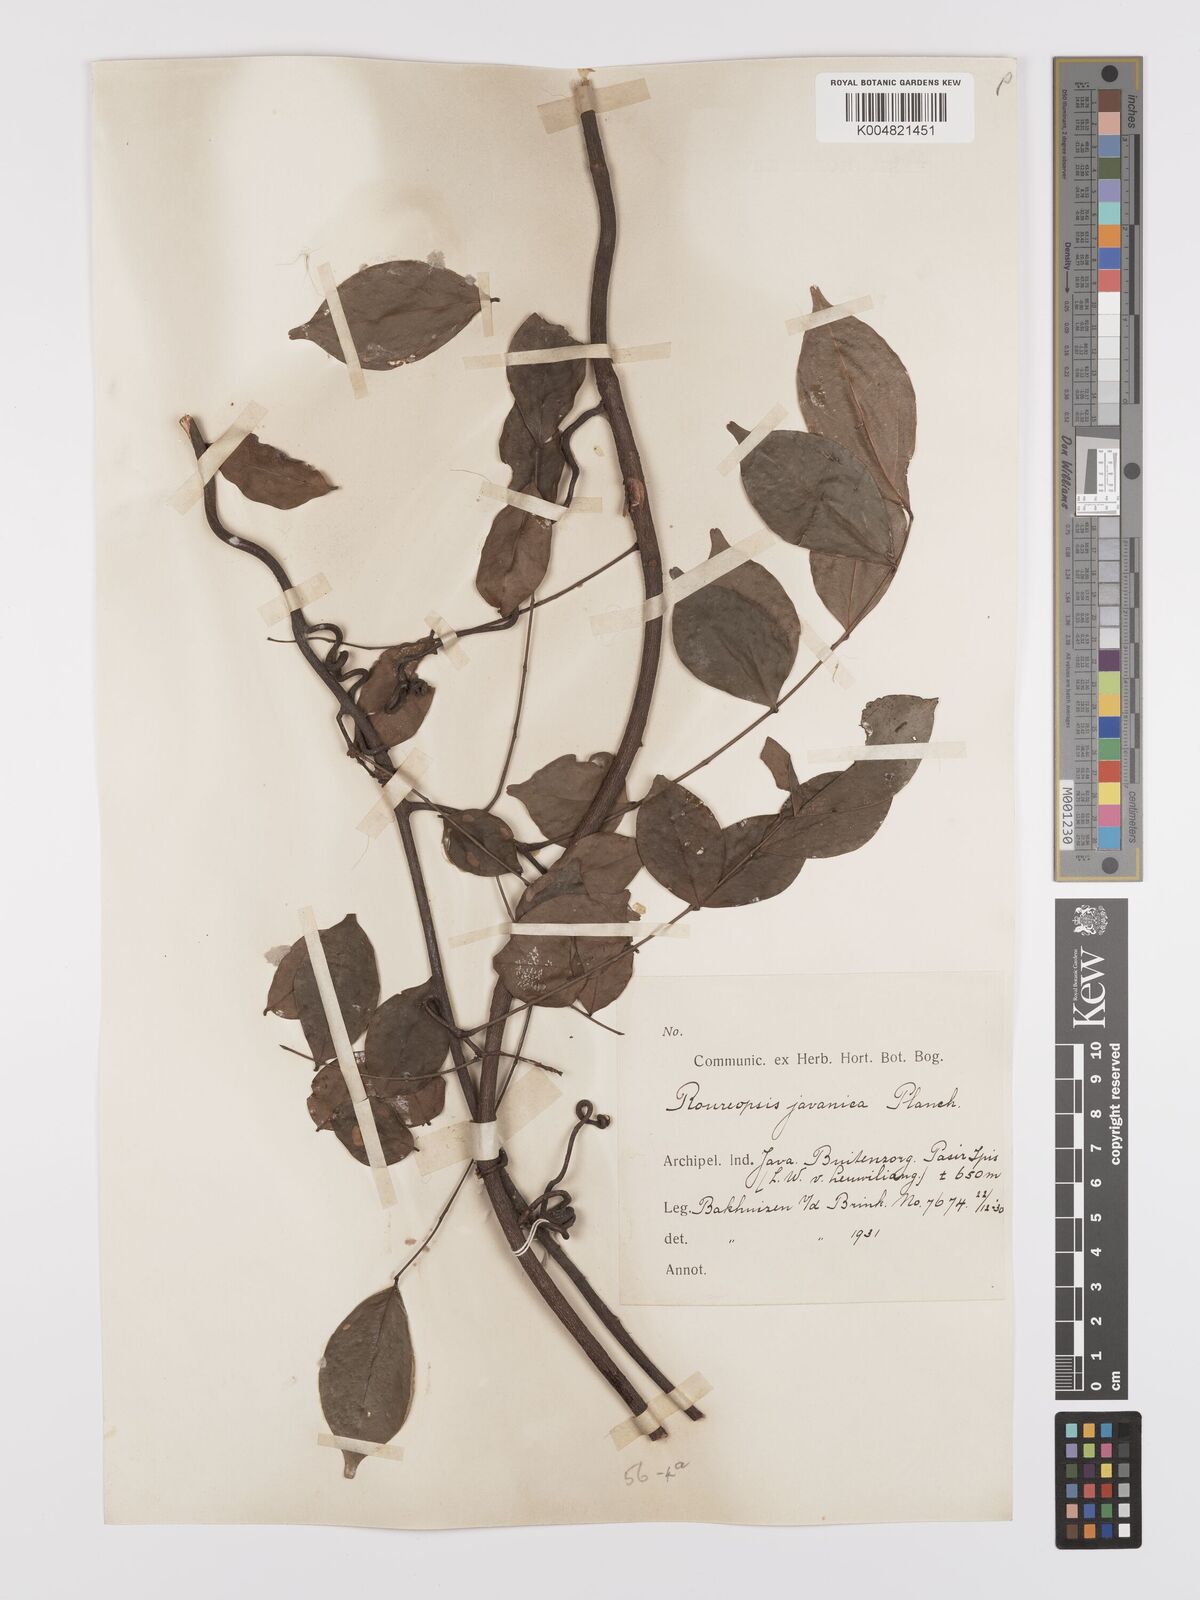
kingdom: Plantae
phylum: Tracheophyta
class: Magnoliopsida
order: Oxalidales
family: Connaraceae
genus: Rourea
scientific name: Rourea emarginata
